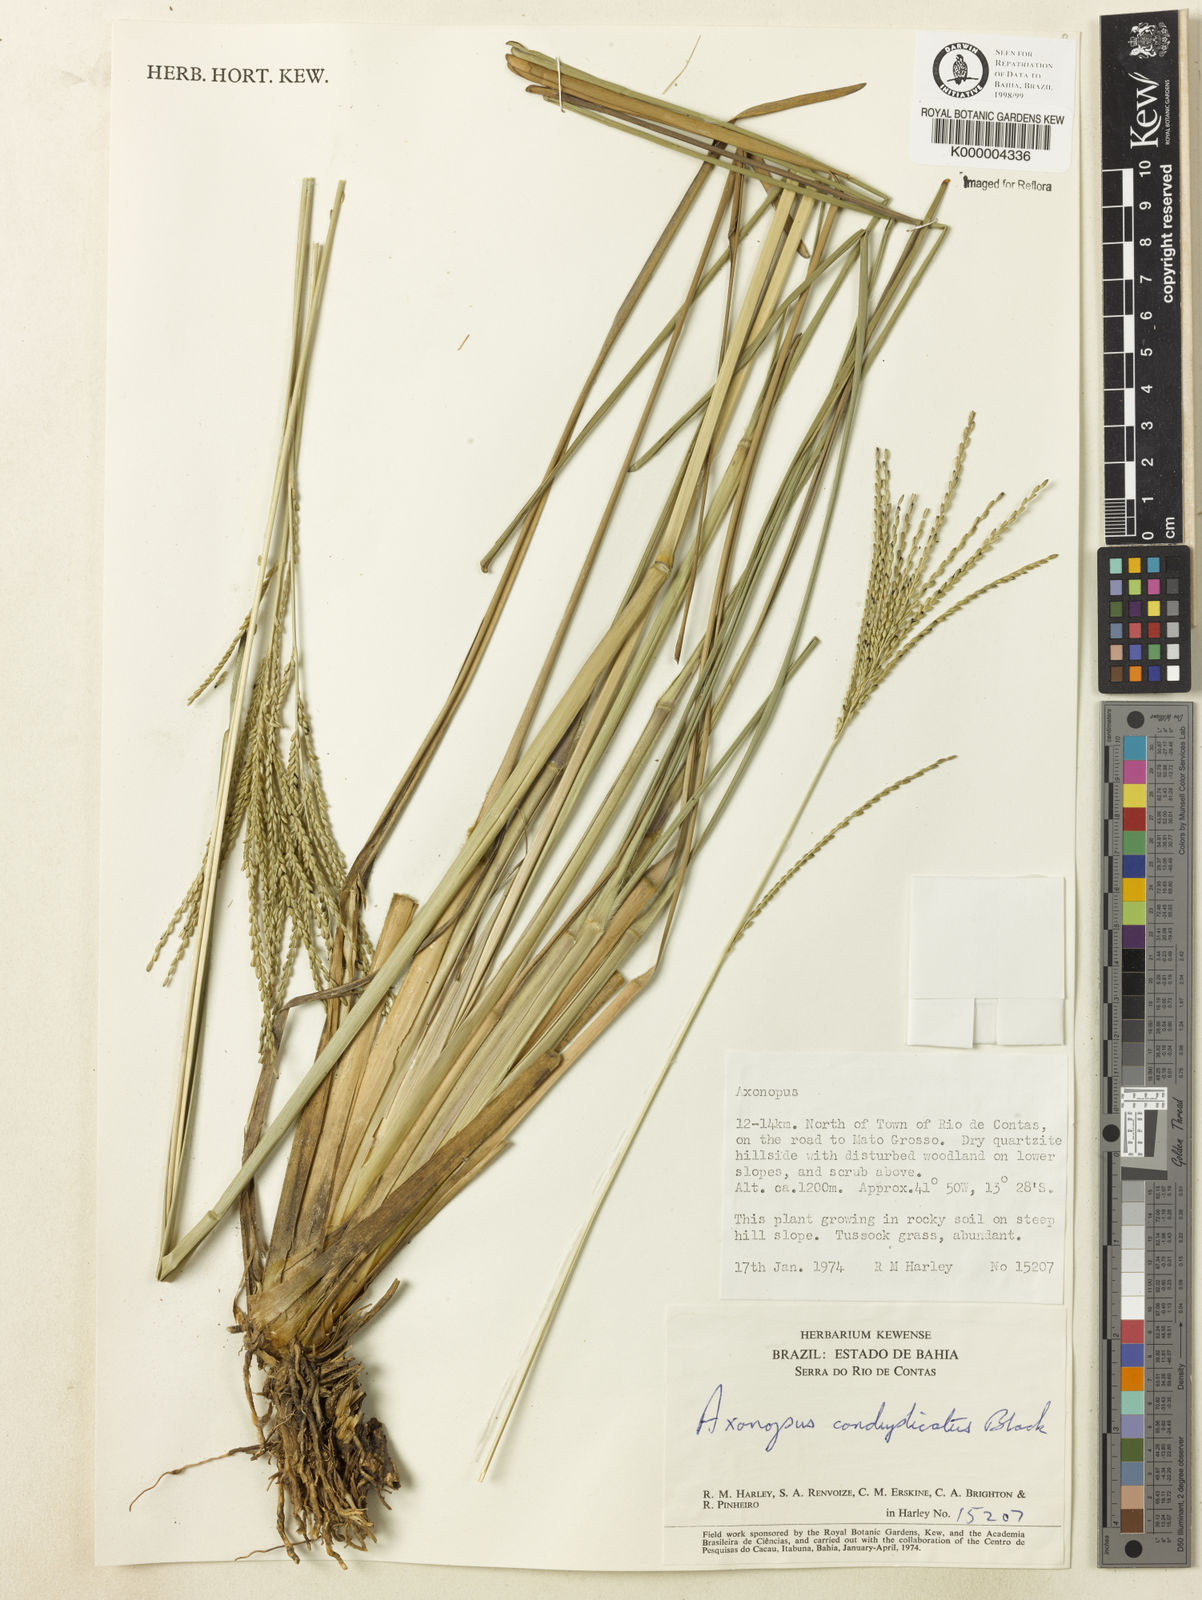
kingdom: Plantae
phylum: Tracheophyta
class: Liliopsida
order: Poales
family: Poaceae
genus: Axonopus
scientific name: Axonopus conduplicatus
